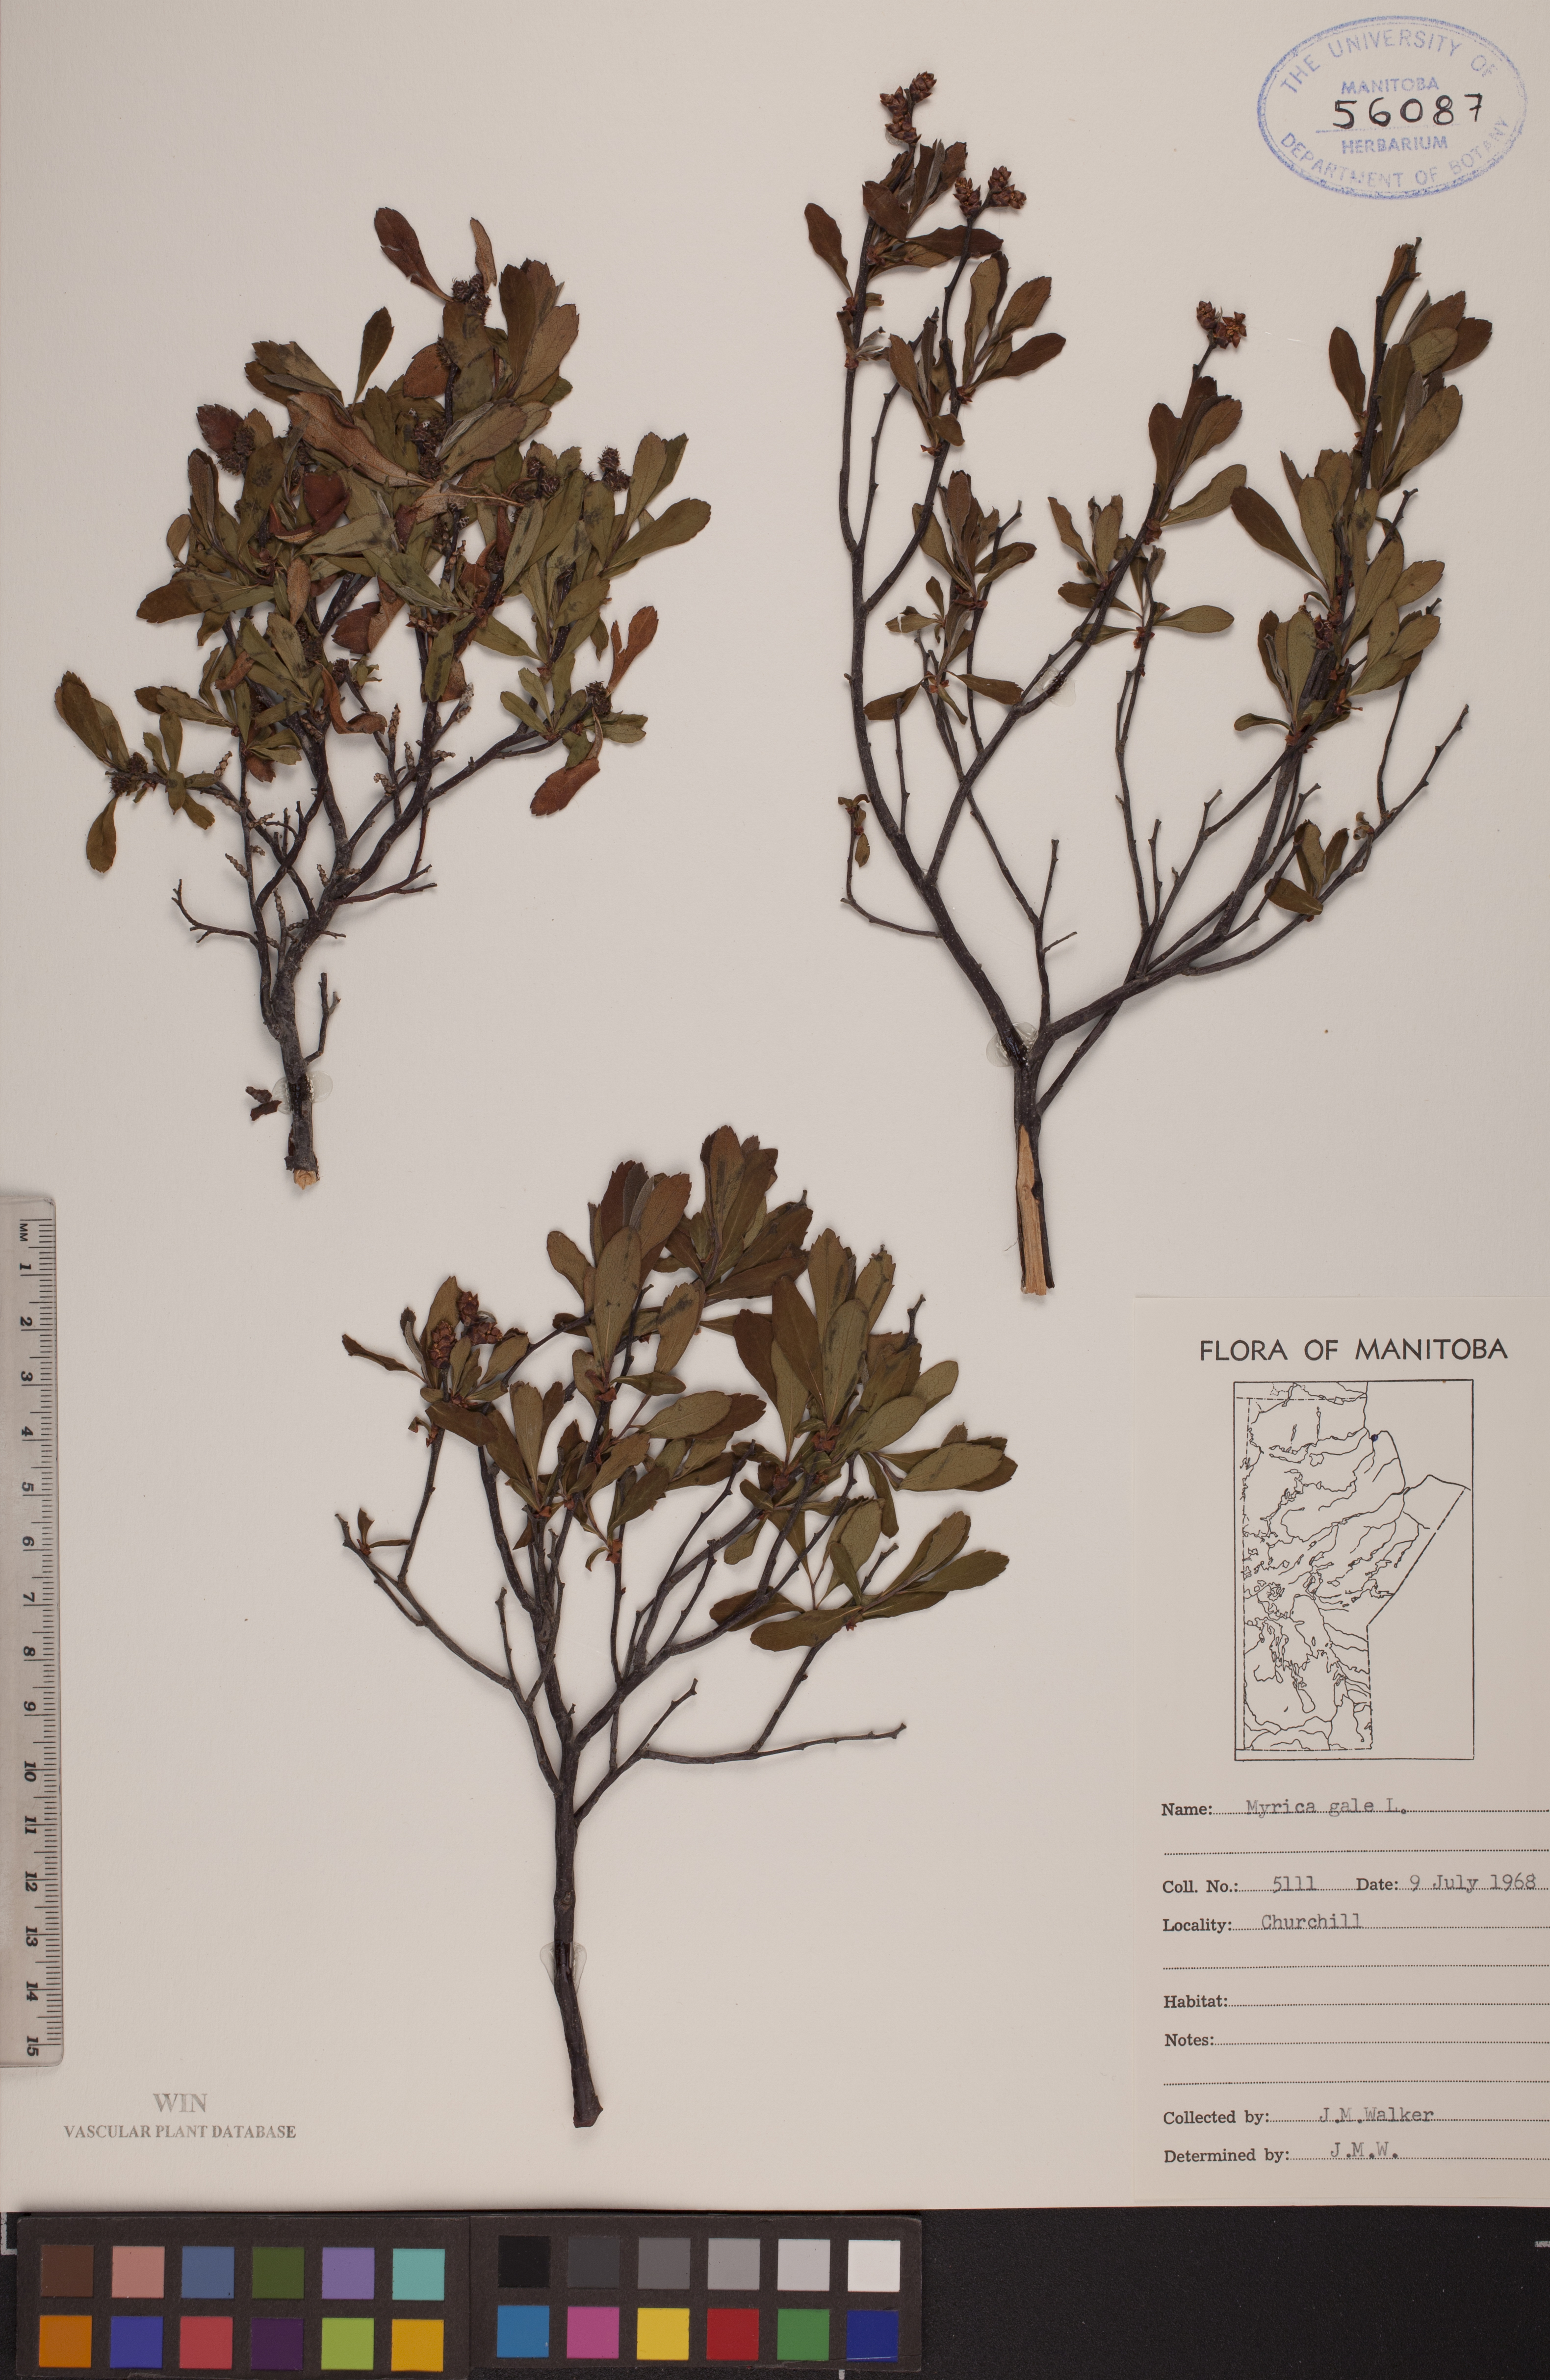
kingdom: Plantae
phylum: Tracheophyta
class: Magnoliopsida
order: Fagales
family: Myricaceae
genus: Myrica
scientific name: Myrica gale
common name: Sweet gale
